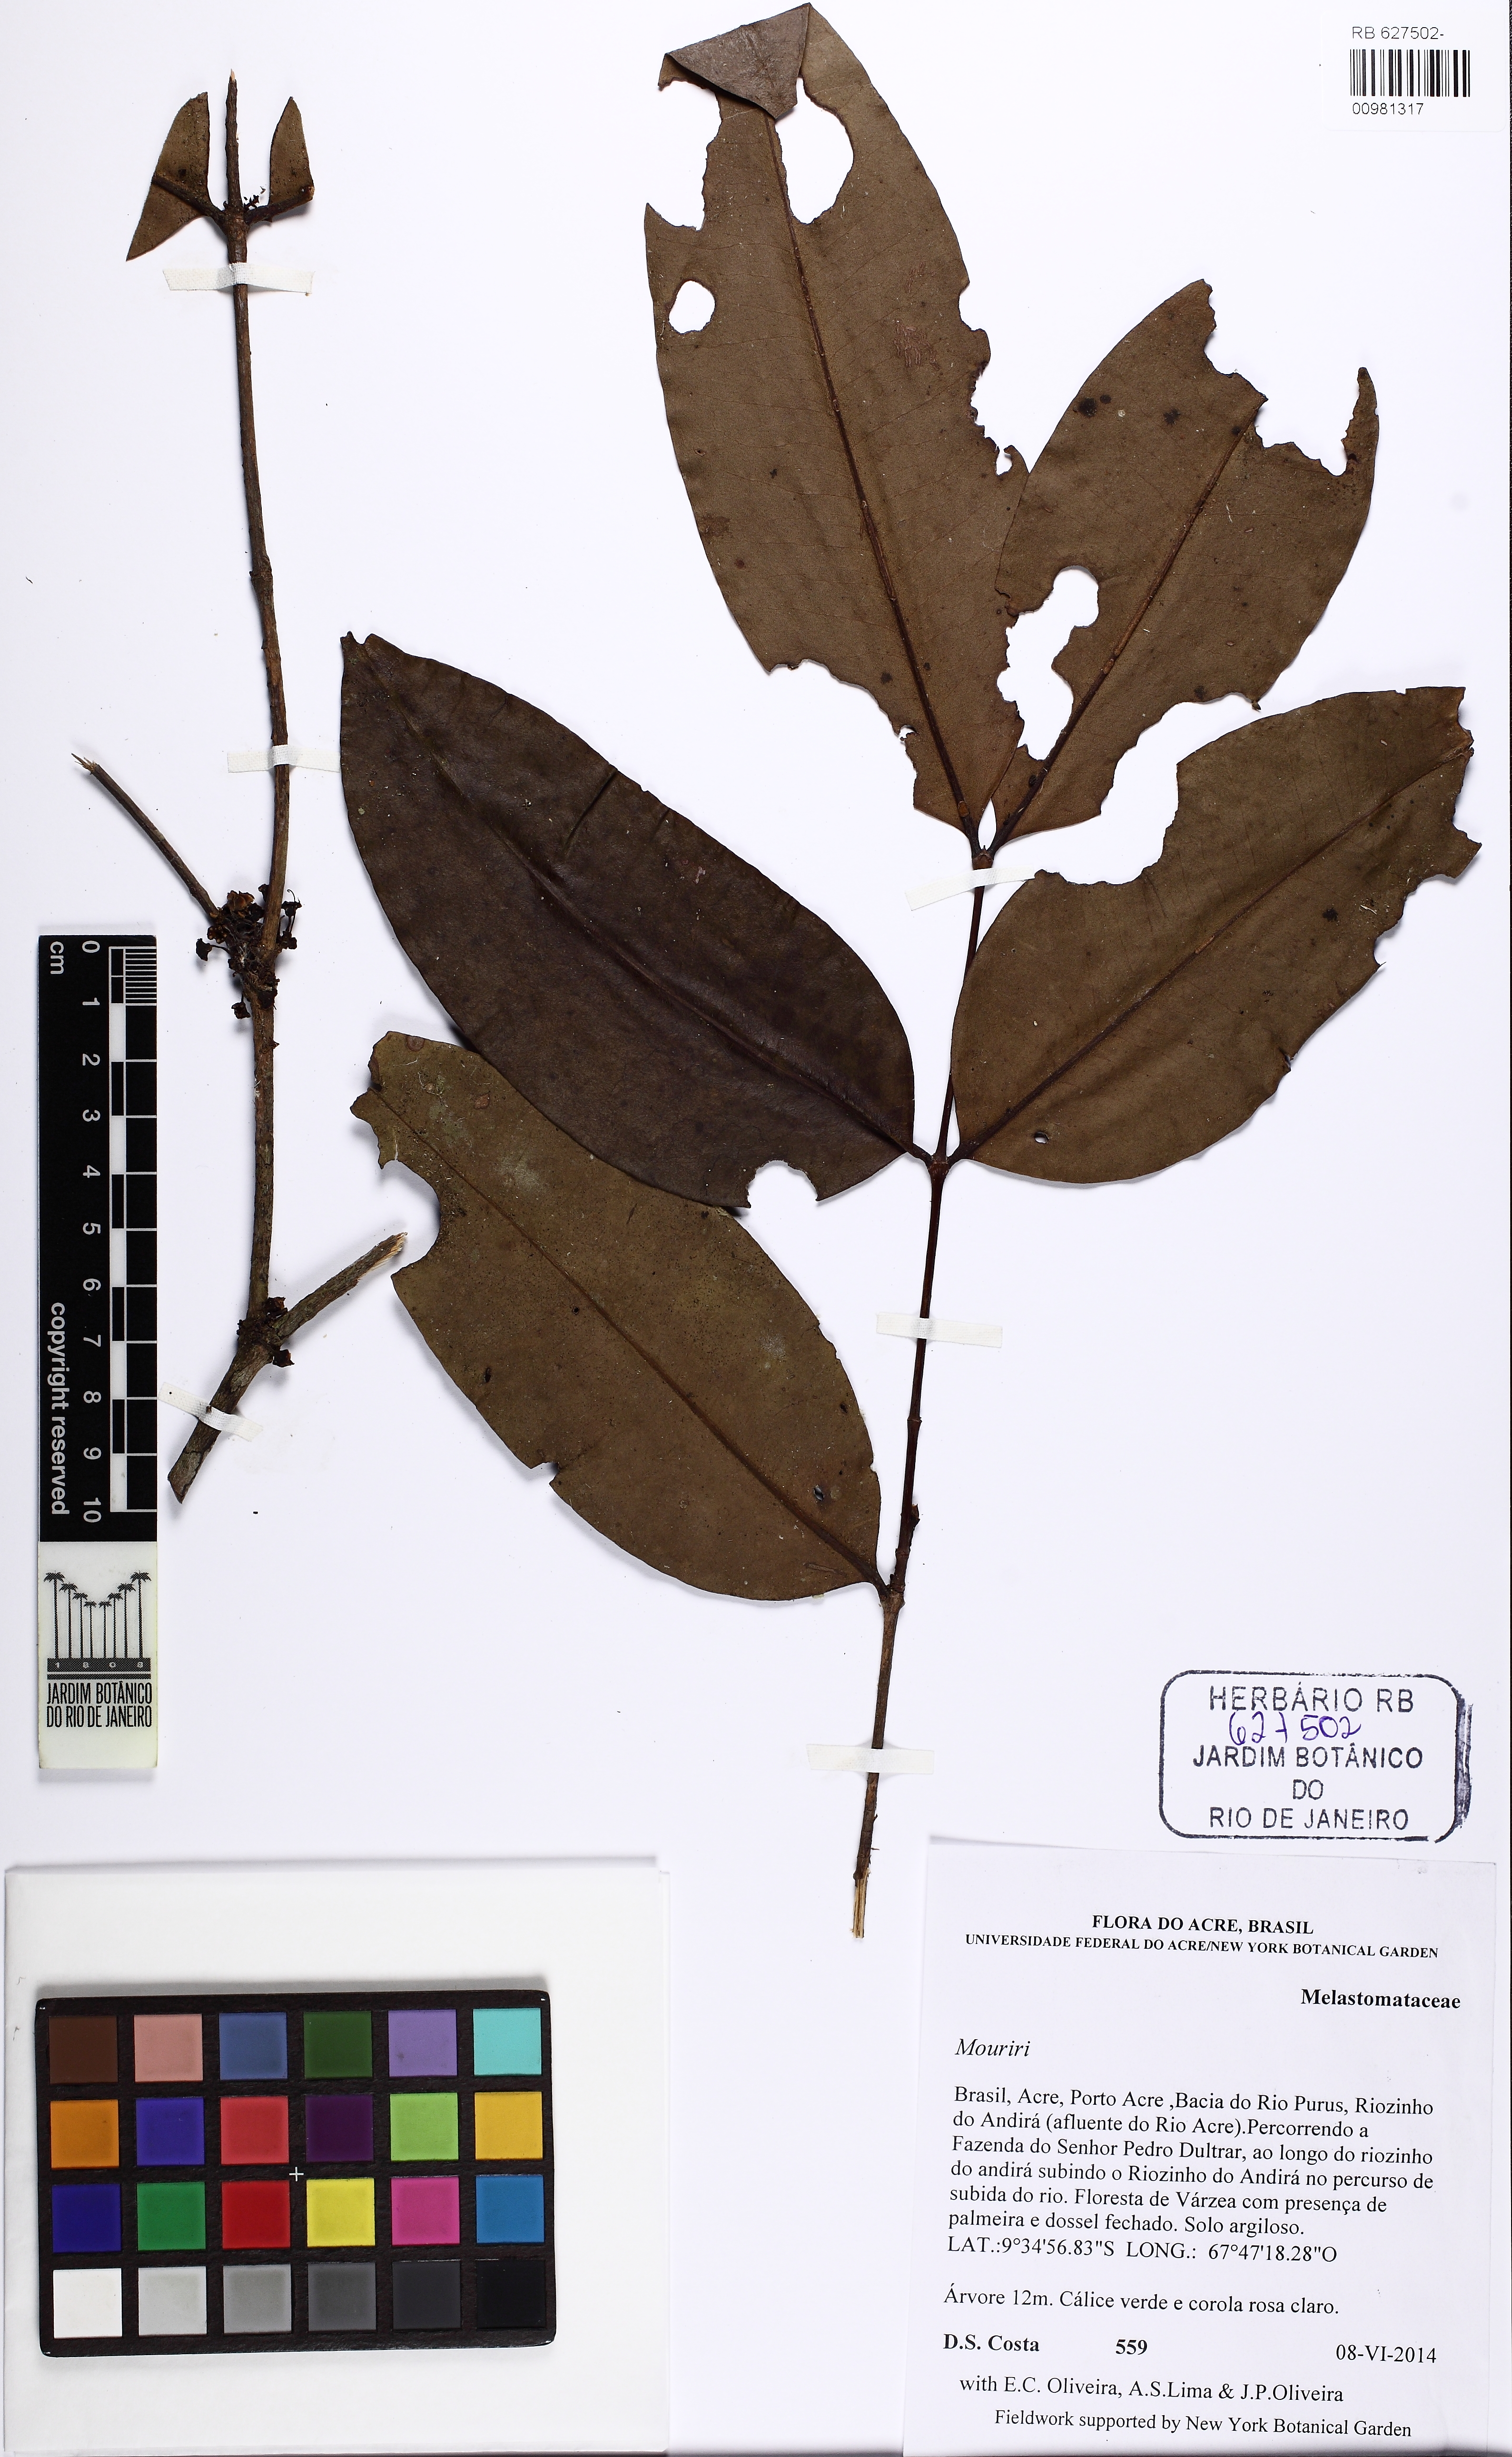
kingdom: Plantae
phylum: Tracheophyta
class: Magnoliopsida
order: Myrtales
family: Melastomataceae
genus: Mouriri
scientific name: Mouriri apiranga
